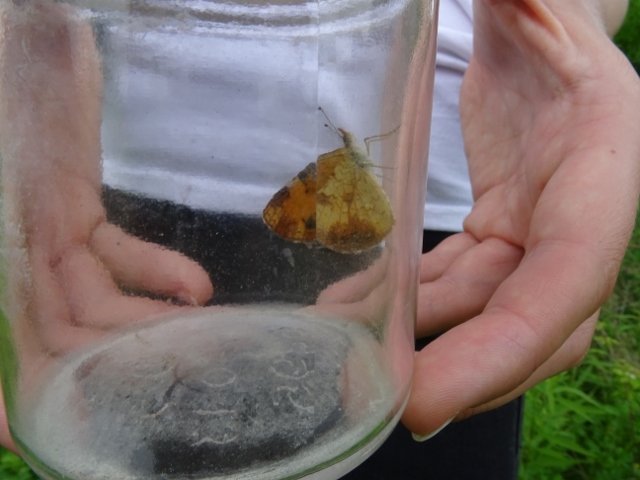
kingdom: Animalia
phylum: Arthropoda
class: Insecta
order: Lepidoptera
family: Nymphalidae
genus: Phyciodes
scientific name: Phyciodes tharos
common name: Pearl Crescent
